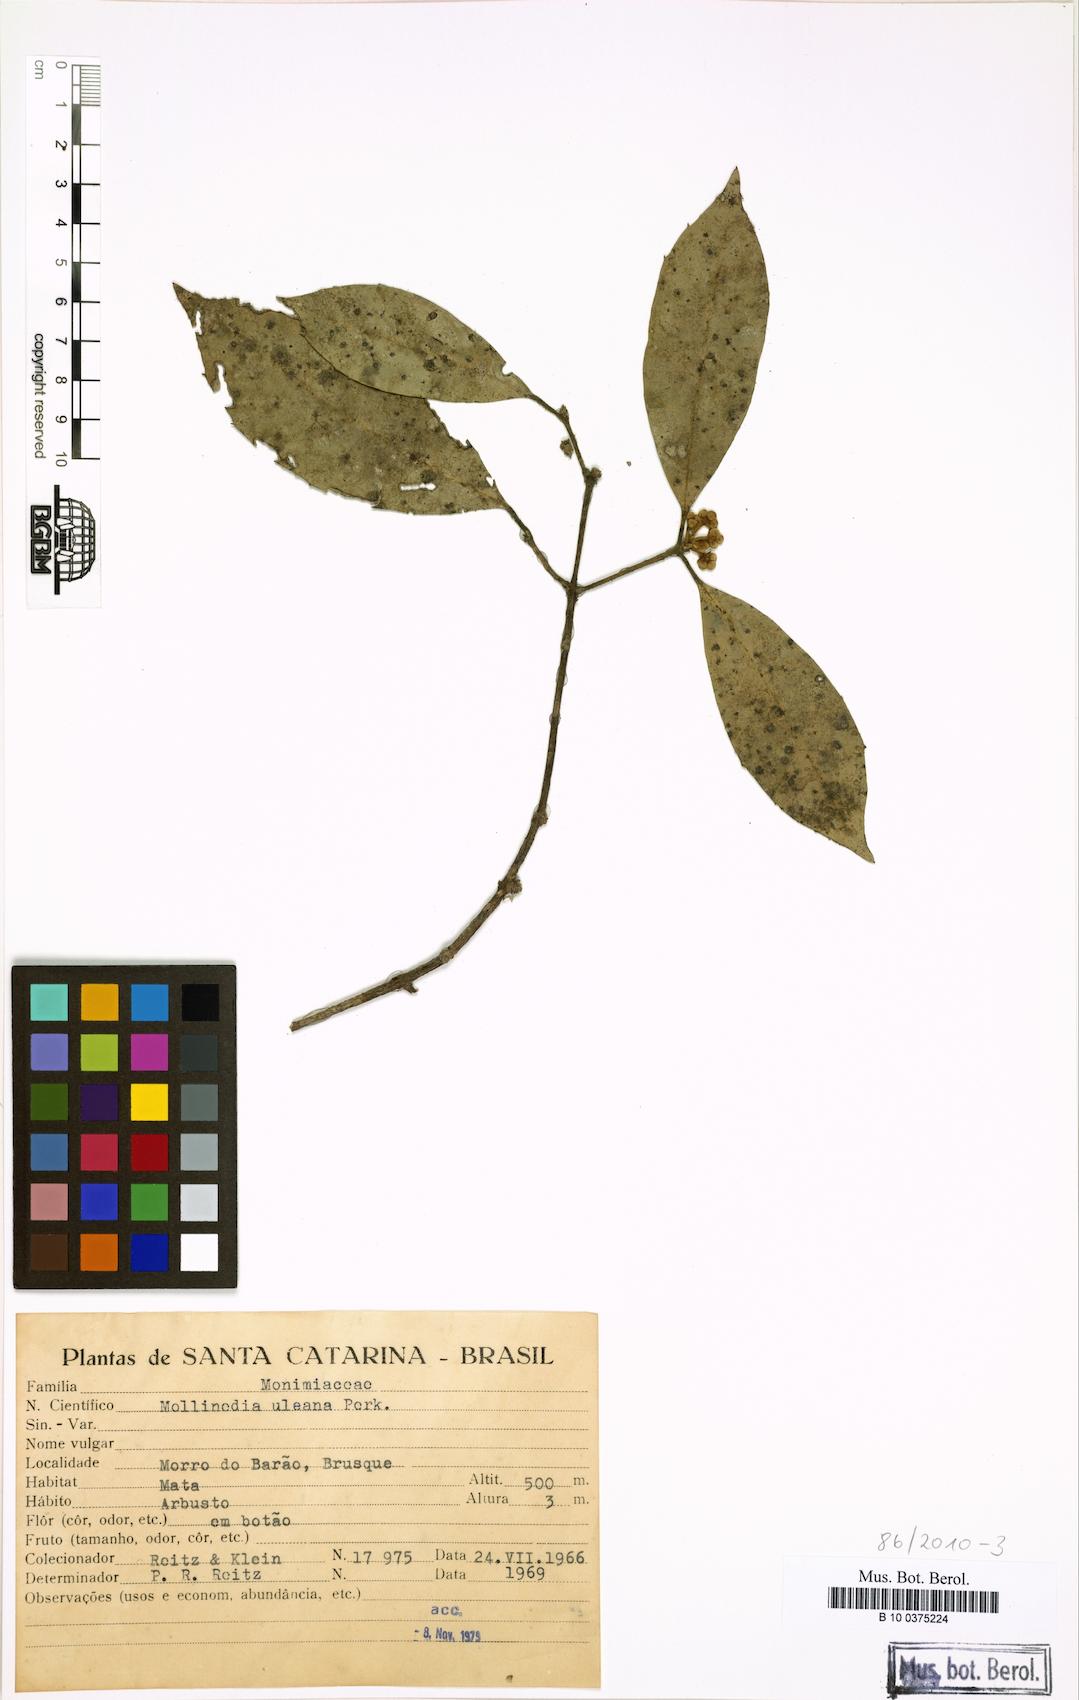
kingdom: Plantae
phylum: Tracheophyta
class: Magnoliopsida
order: Laurales
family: Monimiaceae
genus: Mollinedia
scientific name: Mollinedia uleana
